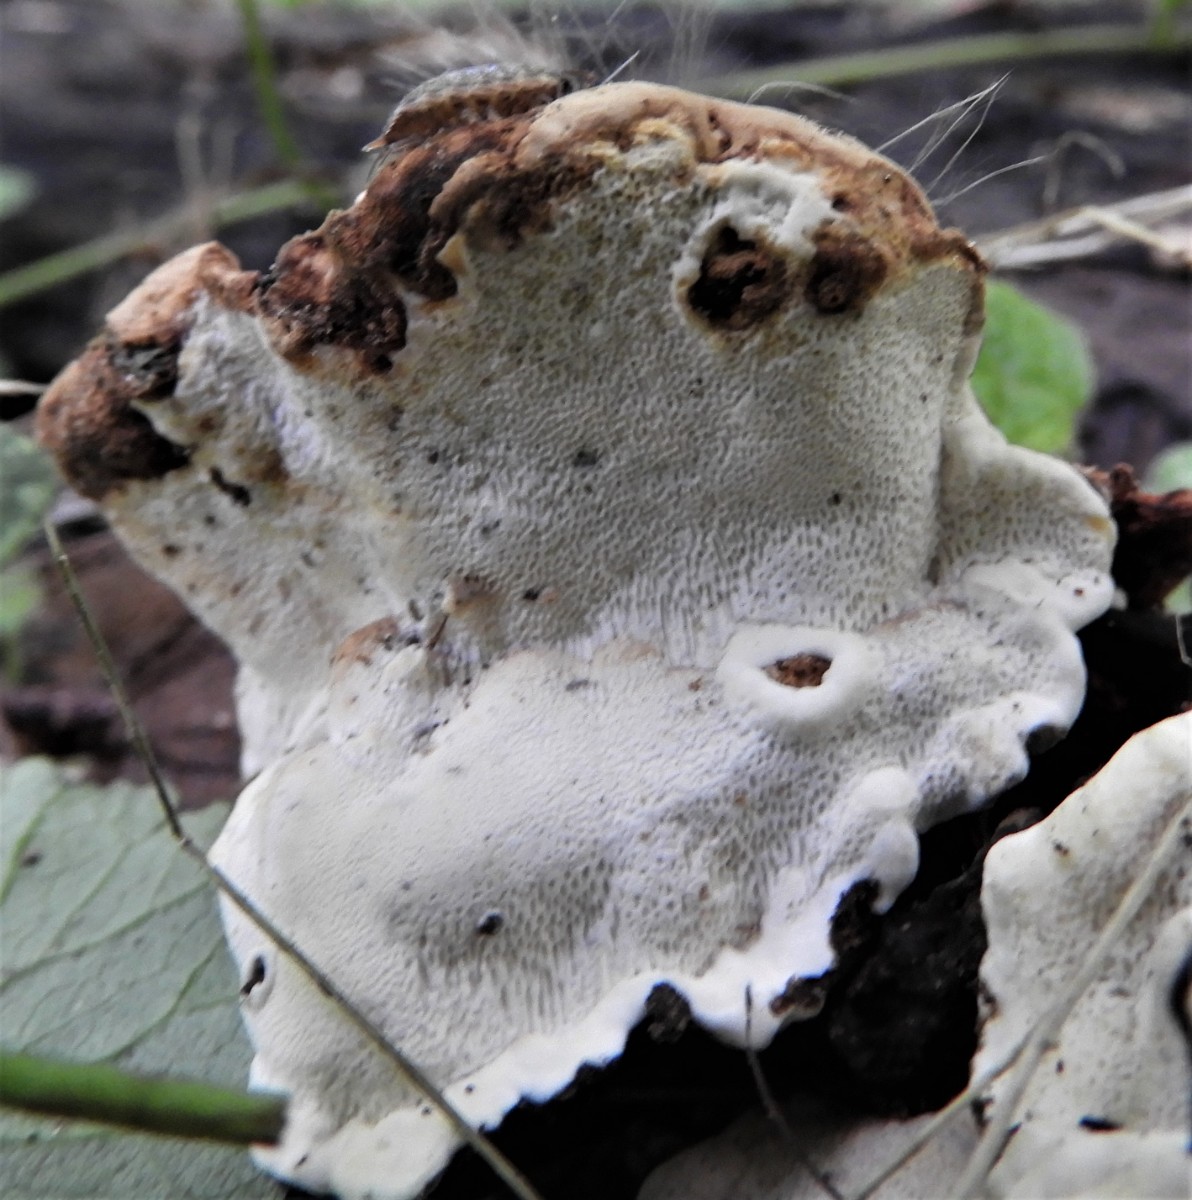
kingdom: Fungi
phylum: Basidiomycota
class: Agaricomycetes
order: Russulales
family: Bondarzewiaceae
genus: Heterobasidion
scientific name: Heterobasidion annosum
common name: almindelig rodfordærver
